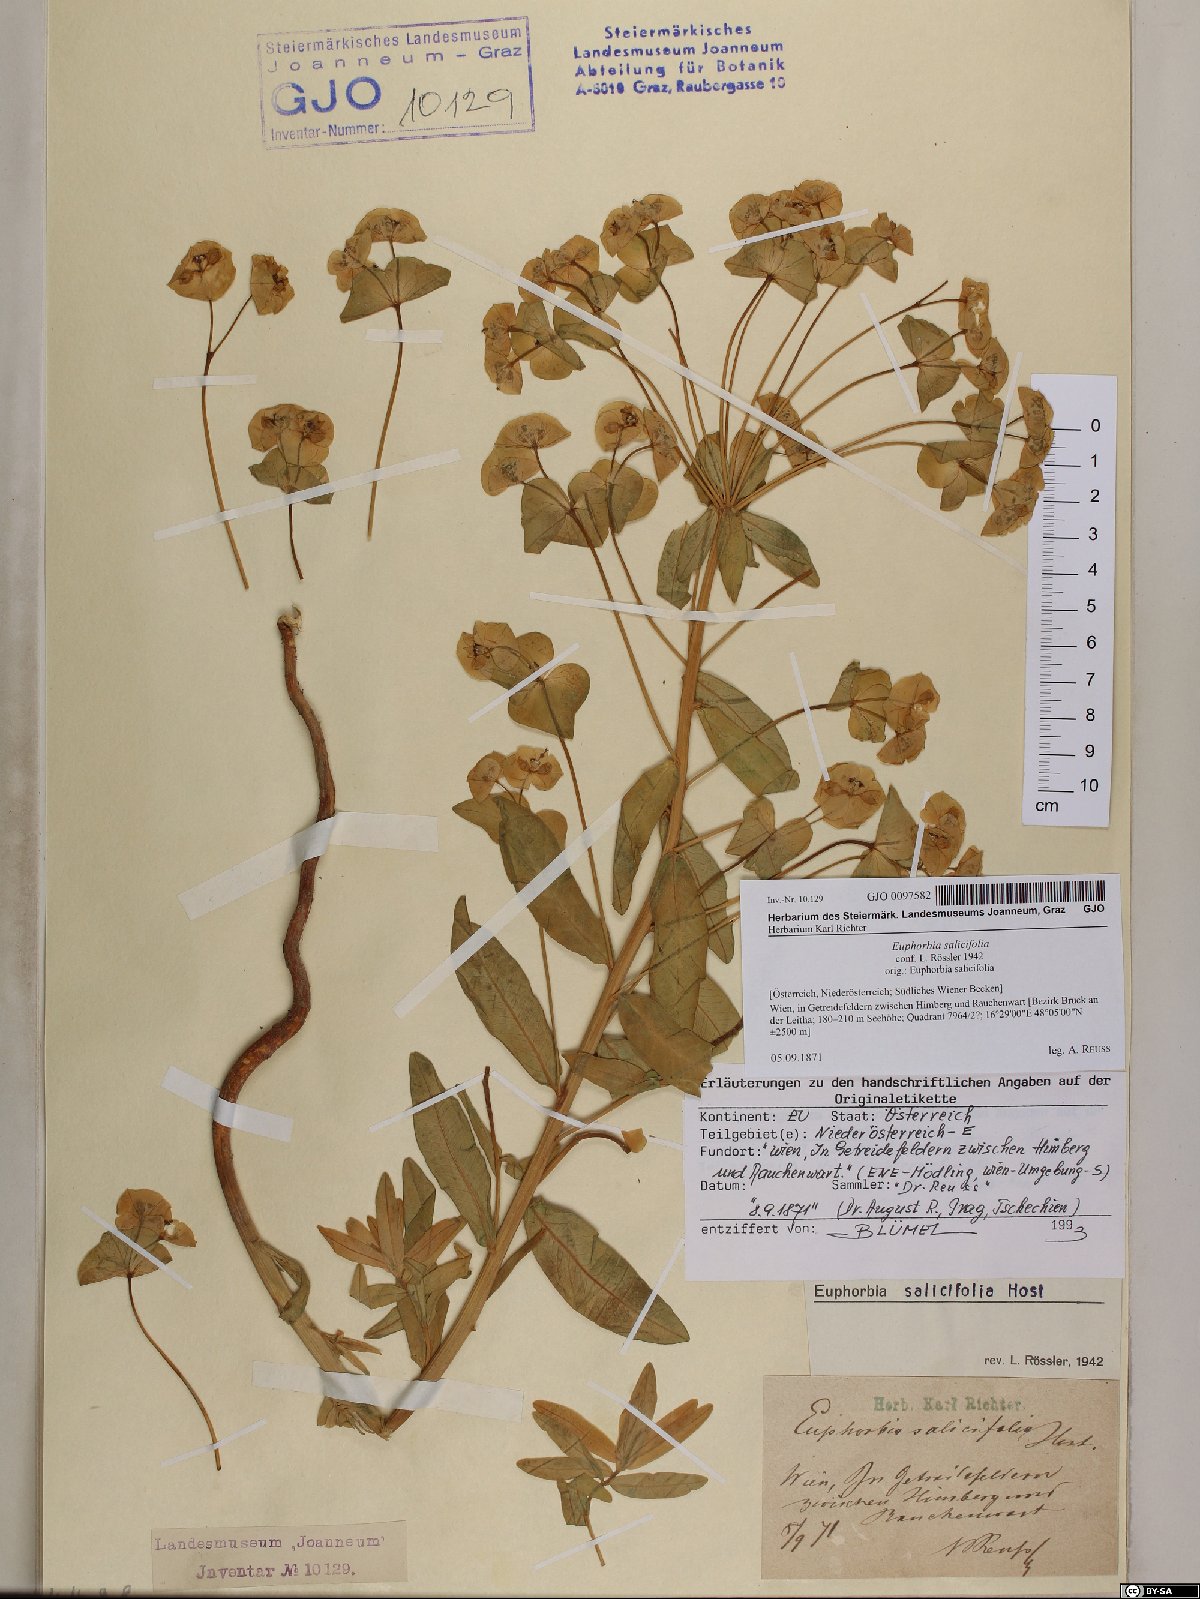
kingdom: Plantae
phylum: Tracheophyta
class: Magnoliopsida
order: Malpighiales
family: Euphorbiaceae
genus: Euphorbia
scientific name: Euphorbia salicifolia
